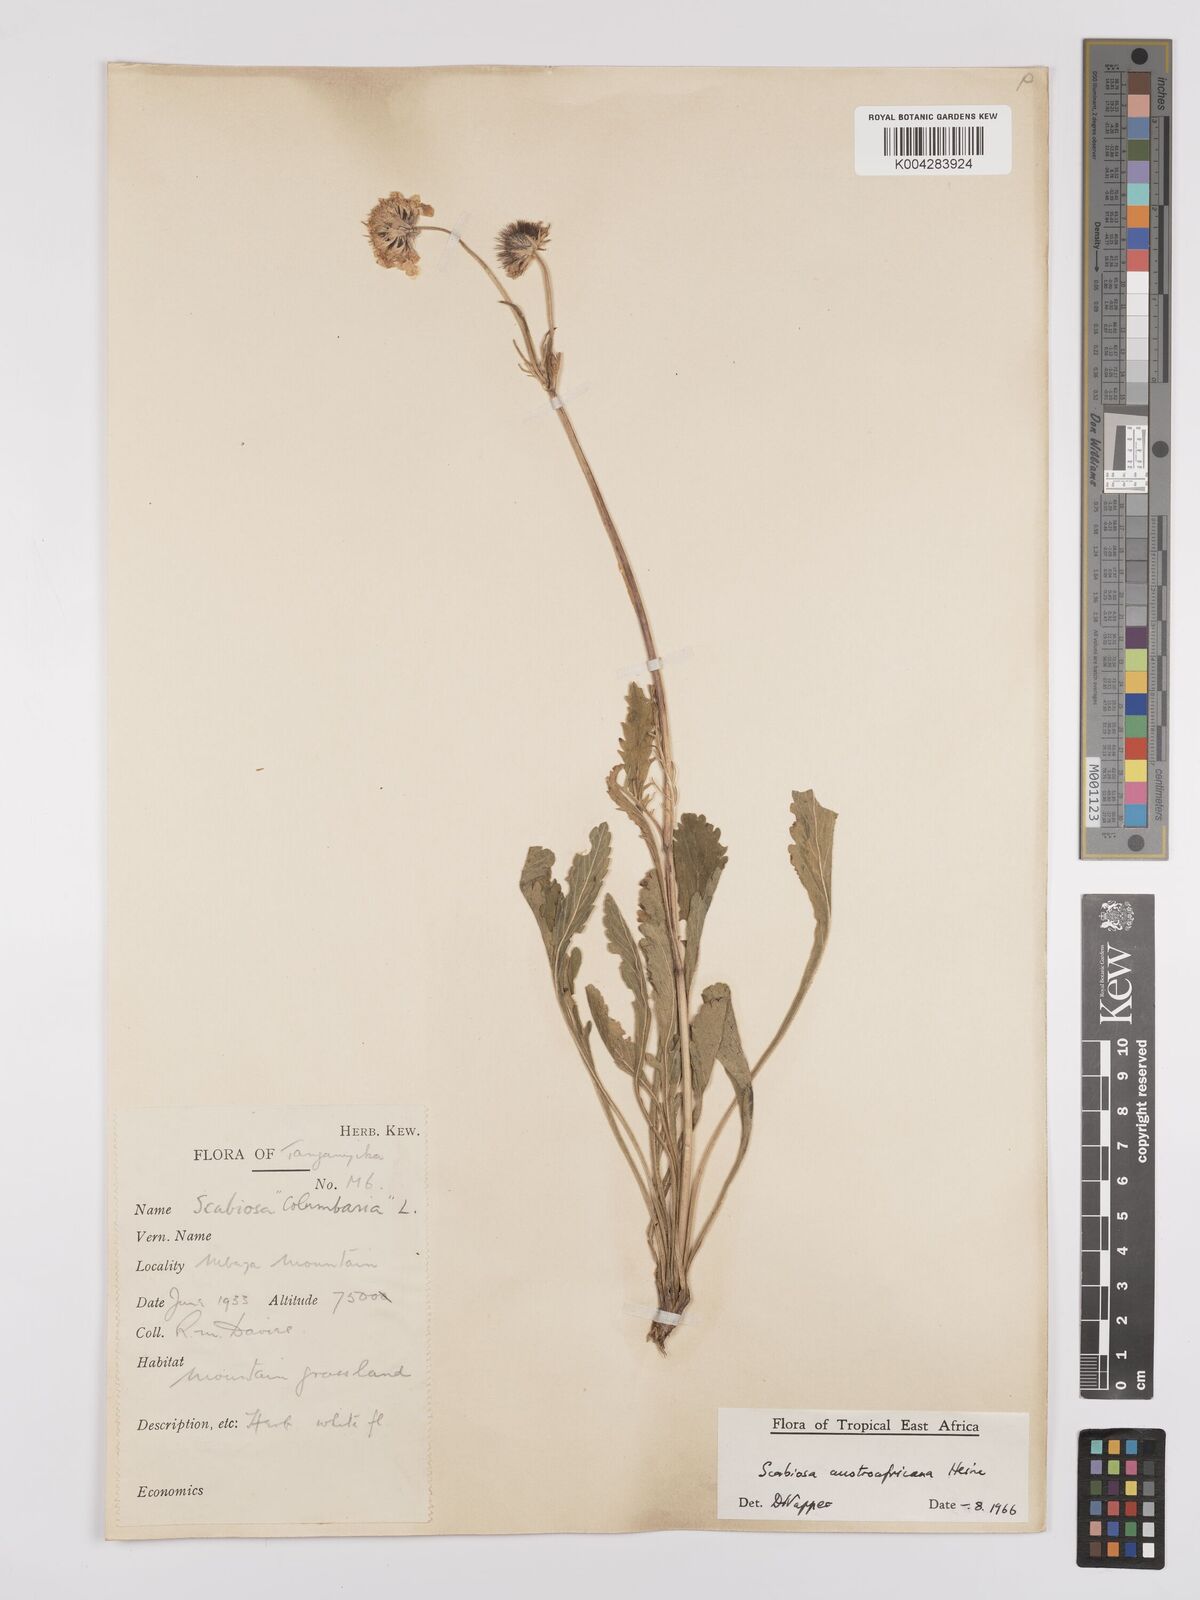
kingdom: Plantae
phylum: Tracheophyta
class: Magnoliopsida
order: Dipsacales
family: Caprifoliaceae
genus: Scabiosa
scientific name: Scabiosa austroafricana
